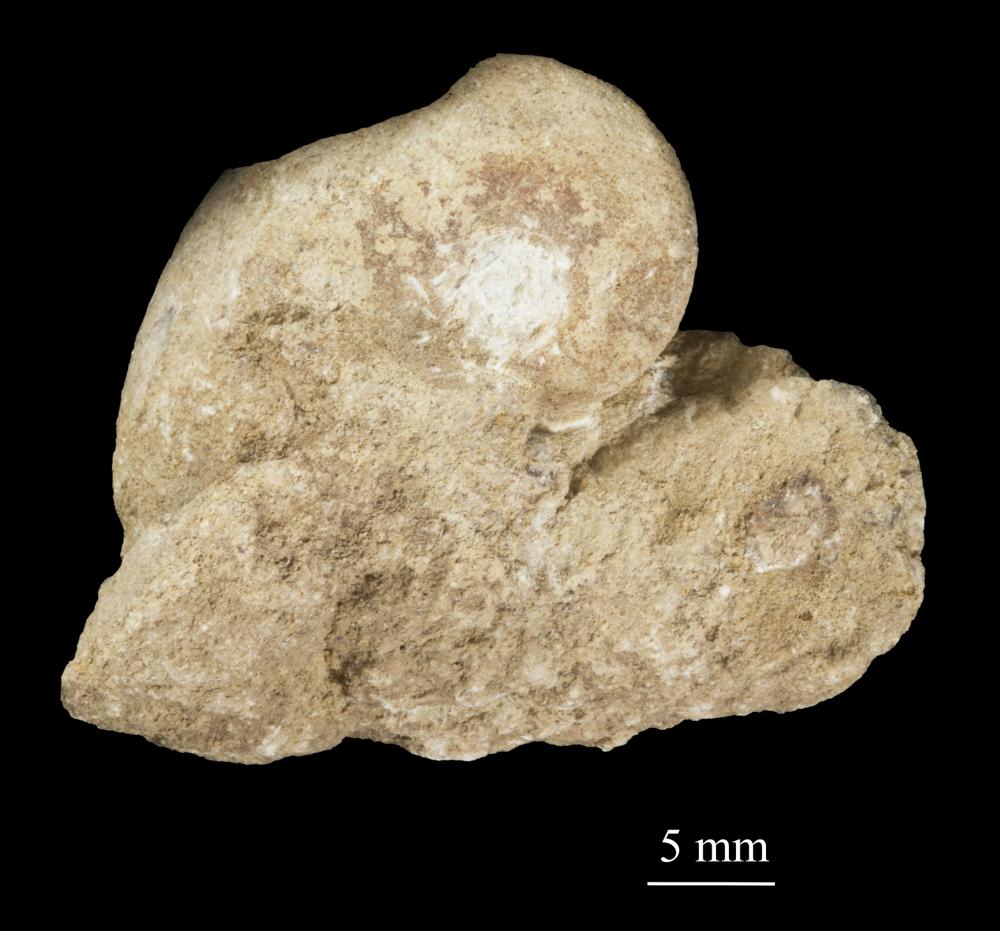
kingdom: Animalia
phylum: Mollusca
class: Gastropoda
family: Bellerophontidae
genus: Temnodiscus
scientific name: Temnodiscus accola
